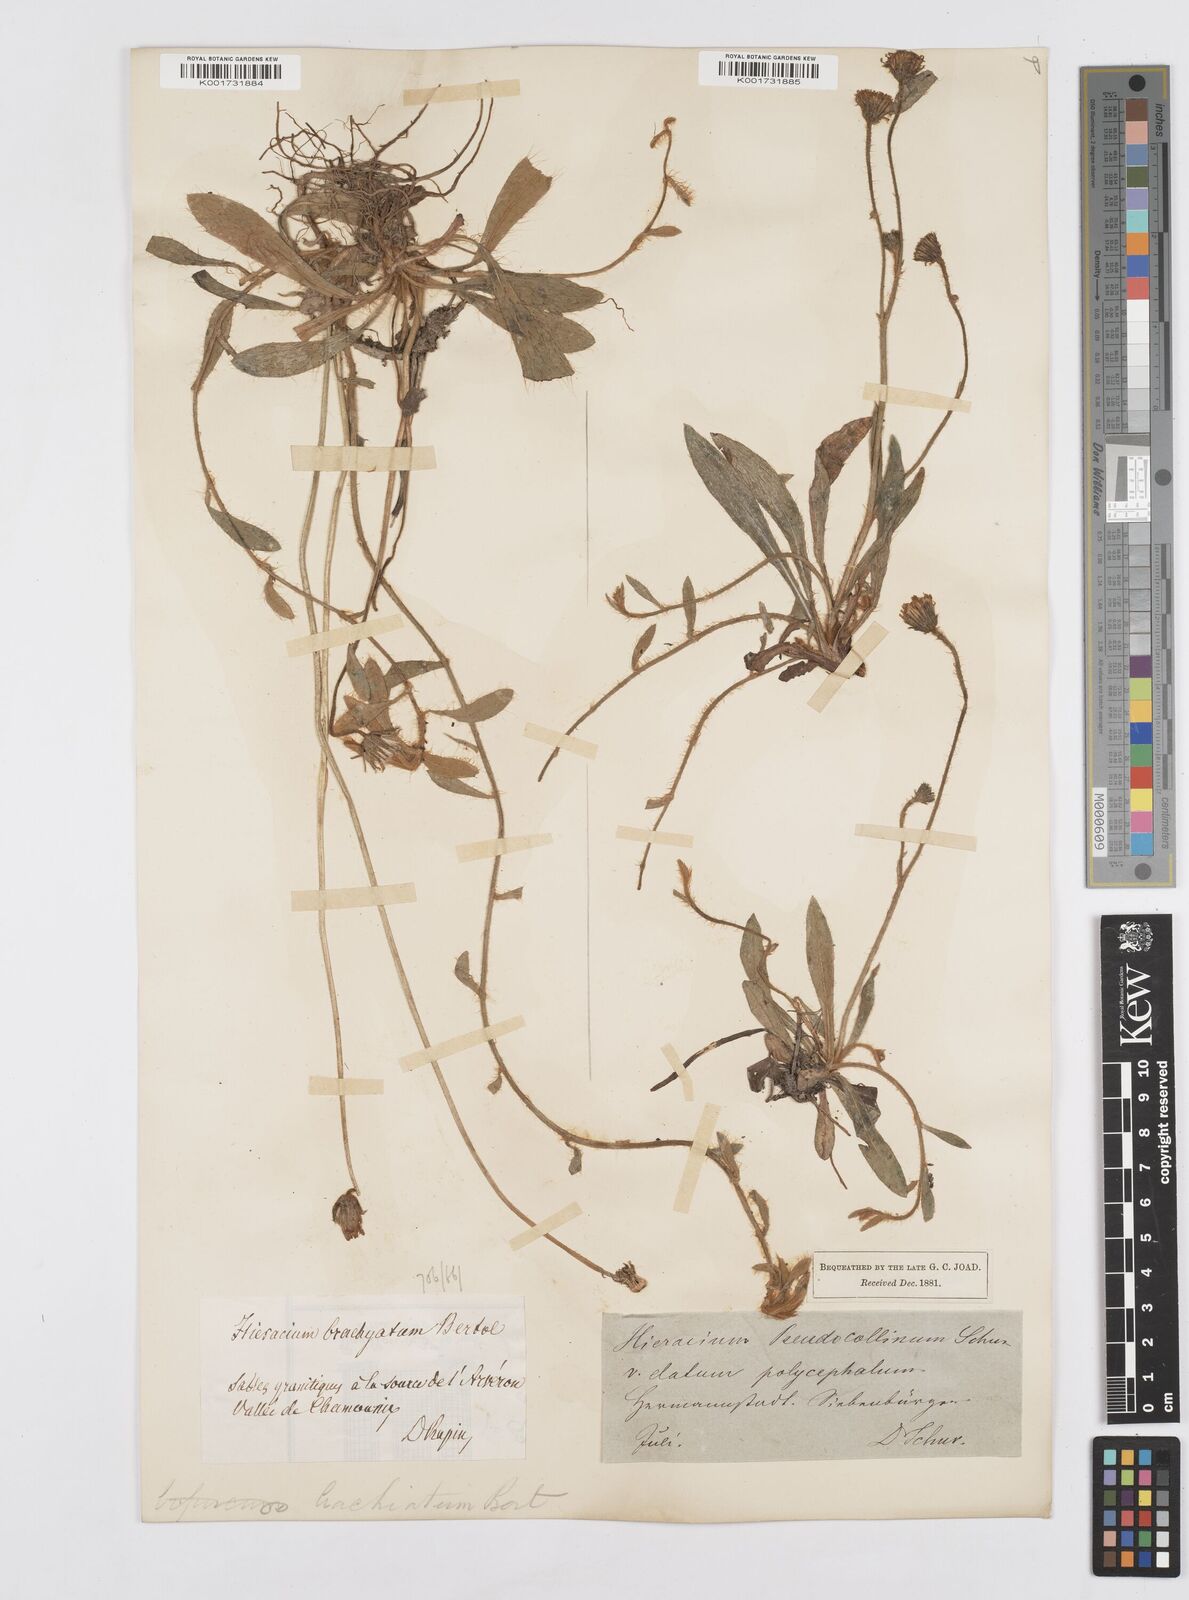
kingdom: Plantae
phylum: Tracheophyta
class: Magnoliopsida
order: Asterales
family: Asteraceae
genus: Pilosella
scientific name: Pilosella acutifolia
